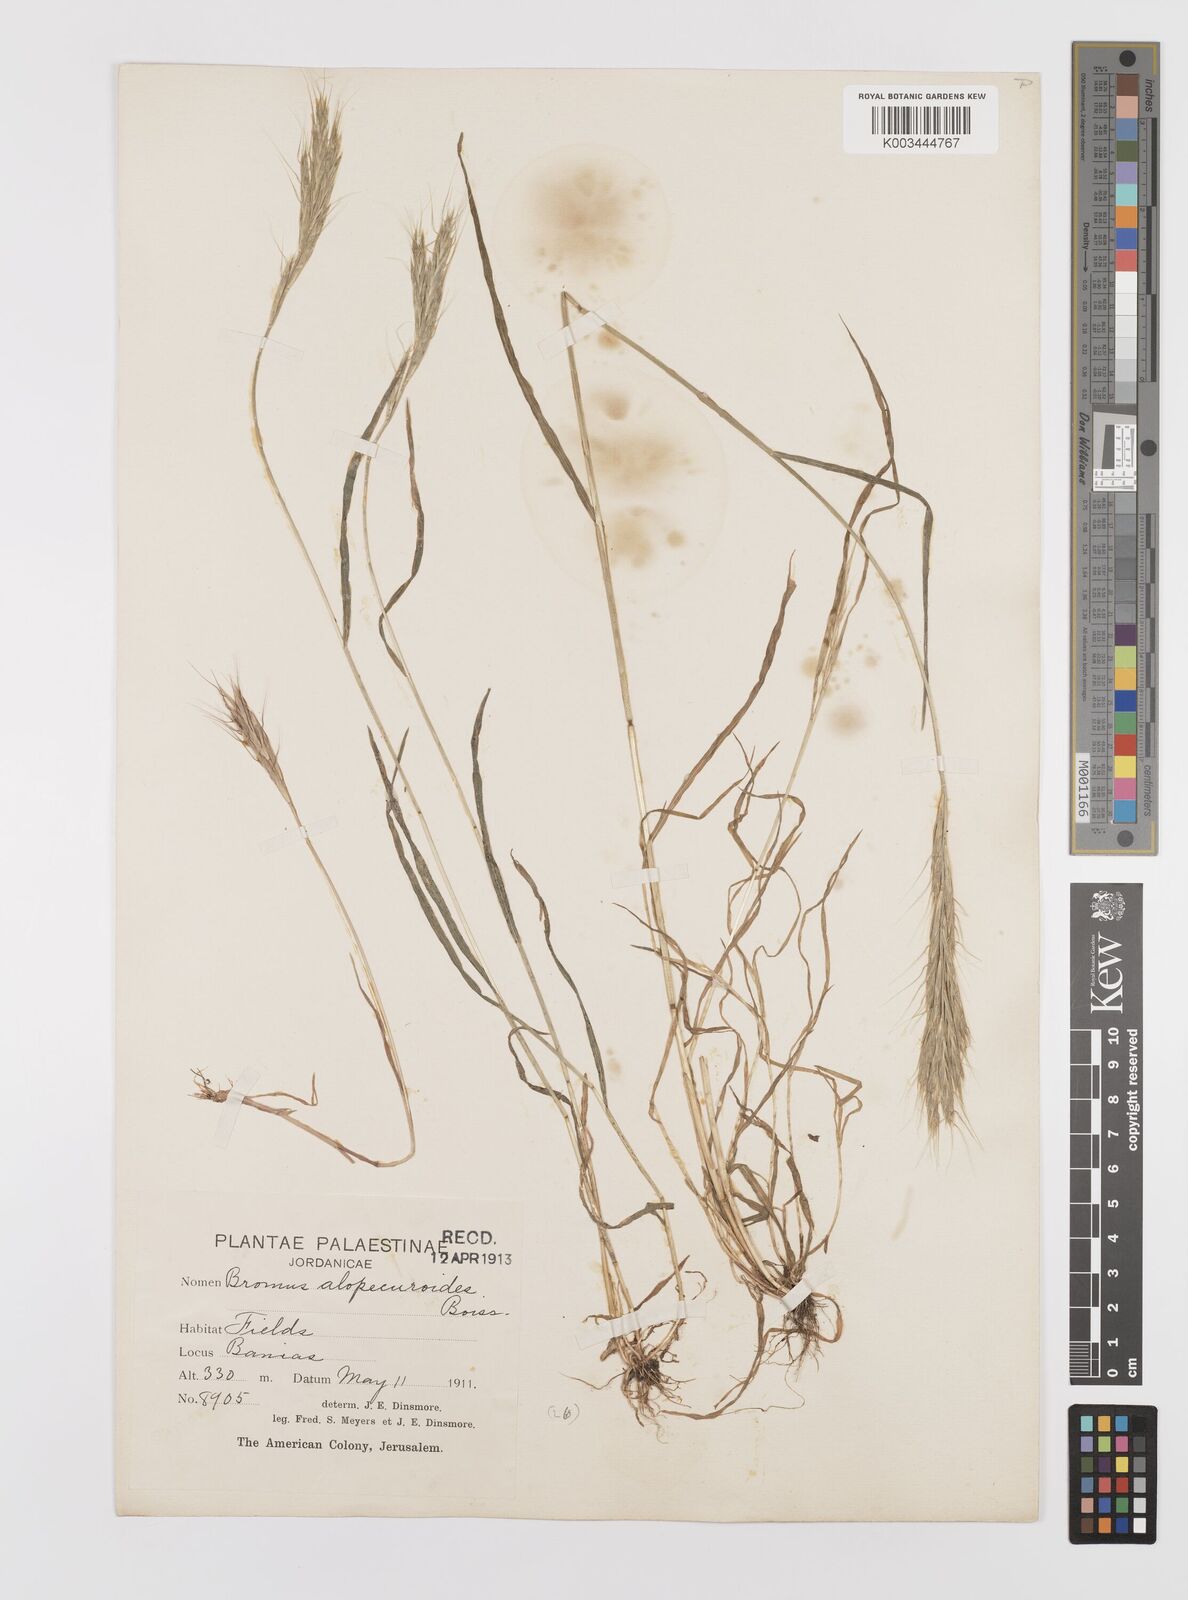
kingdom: Plantae
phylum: Tracheophyta
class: Liliopsida
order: Poales
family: Poaceae
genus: Bromus
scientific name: Bromus alopecuros
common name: Weedy brome
